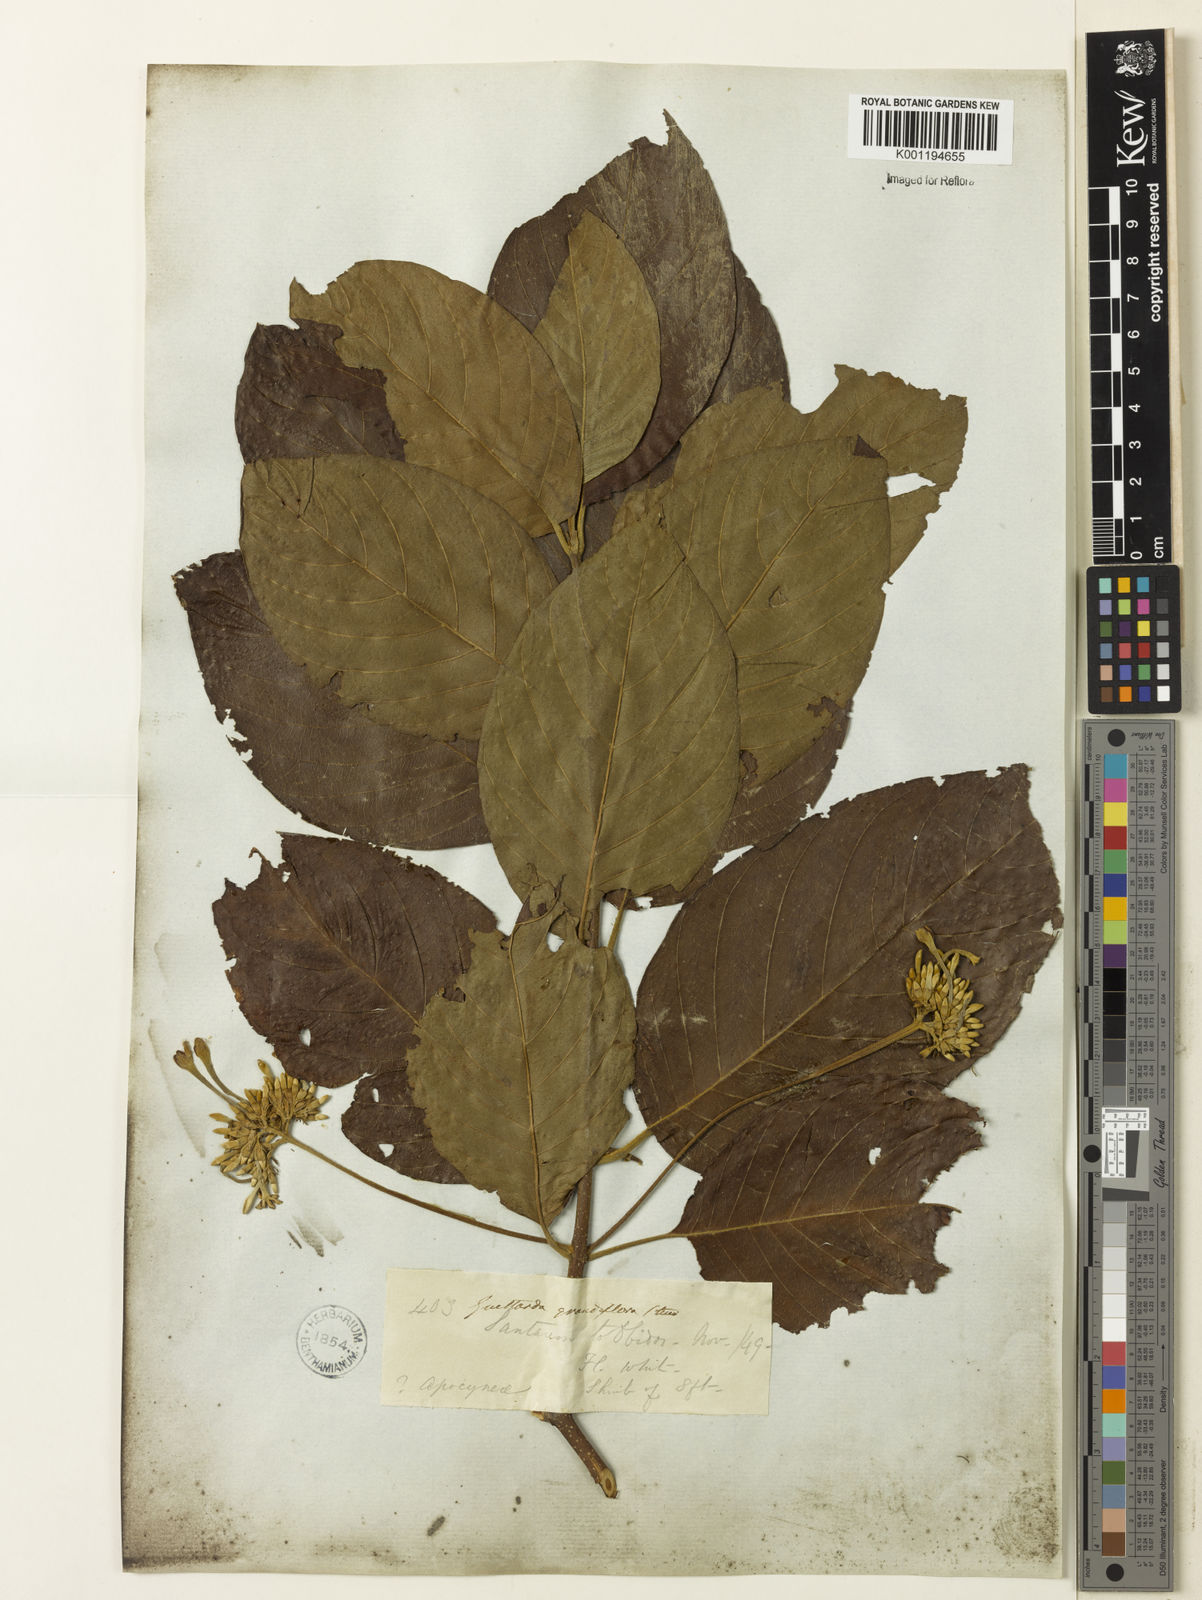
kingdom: Plantae
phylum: Tracheophyta
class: Magnoliopsida
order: Gentianales
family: Rubiaceae
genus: Guettarda
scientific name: Guettarda aromatica
